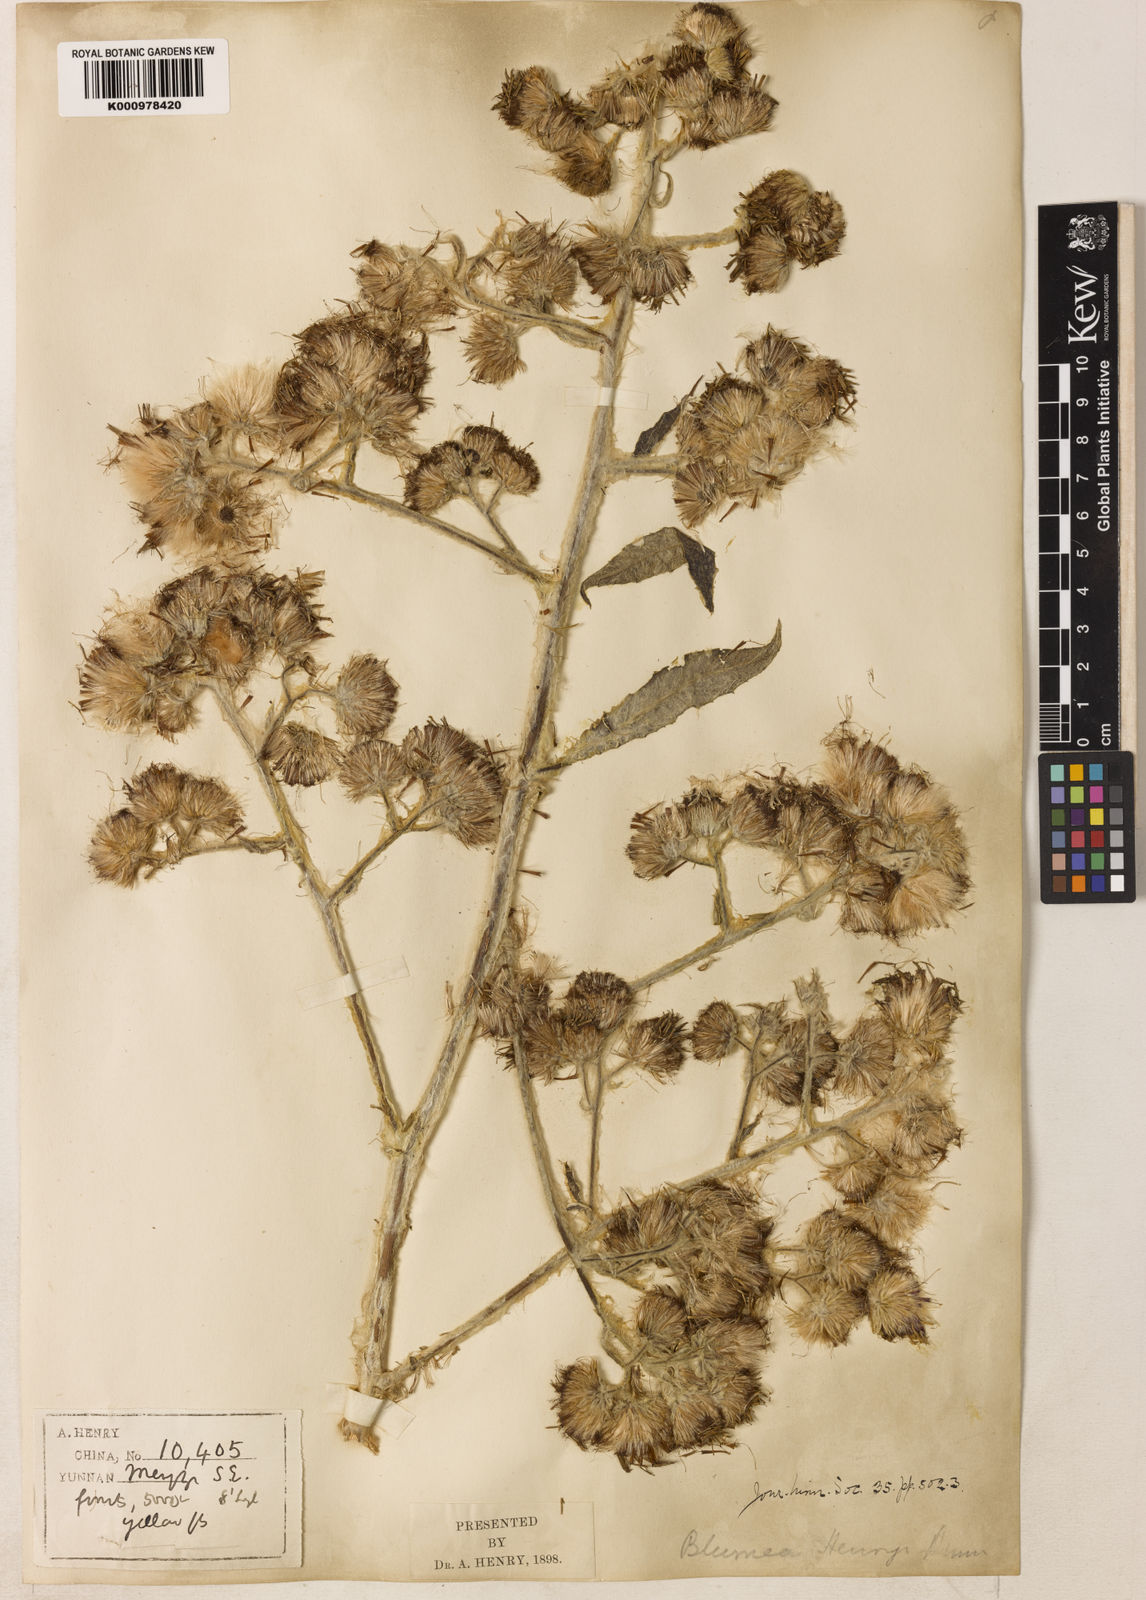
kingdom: Plantae
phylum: Tracheophyta
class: Magnoliopsida
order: Asterales
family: Asteraceae
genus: Blumea
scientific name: Blumea martiniana
